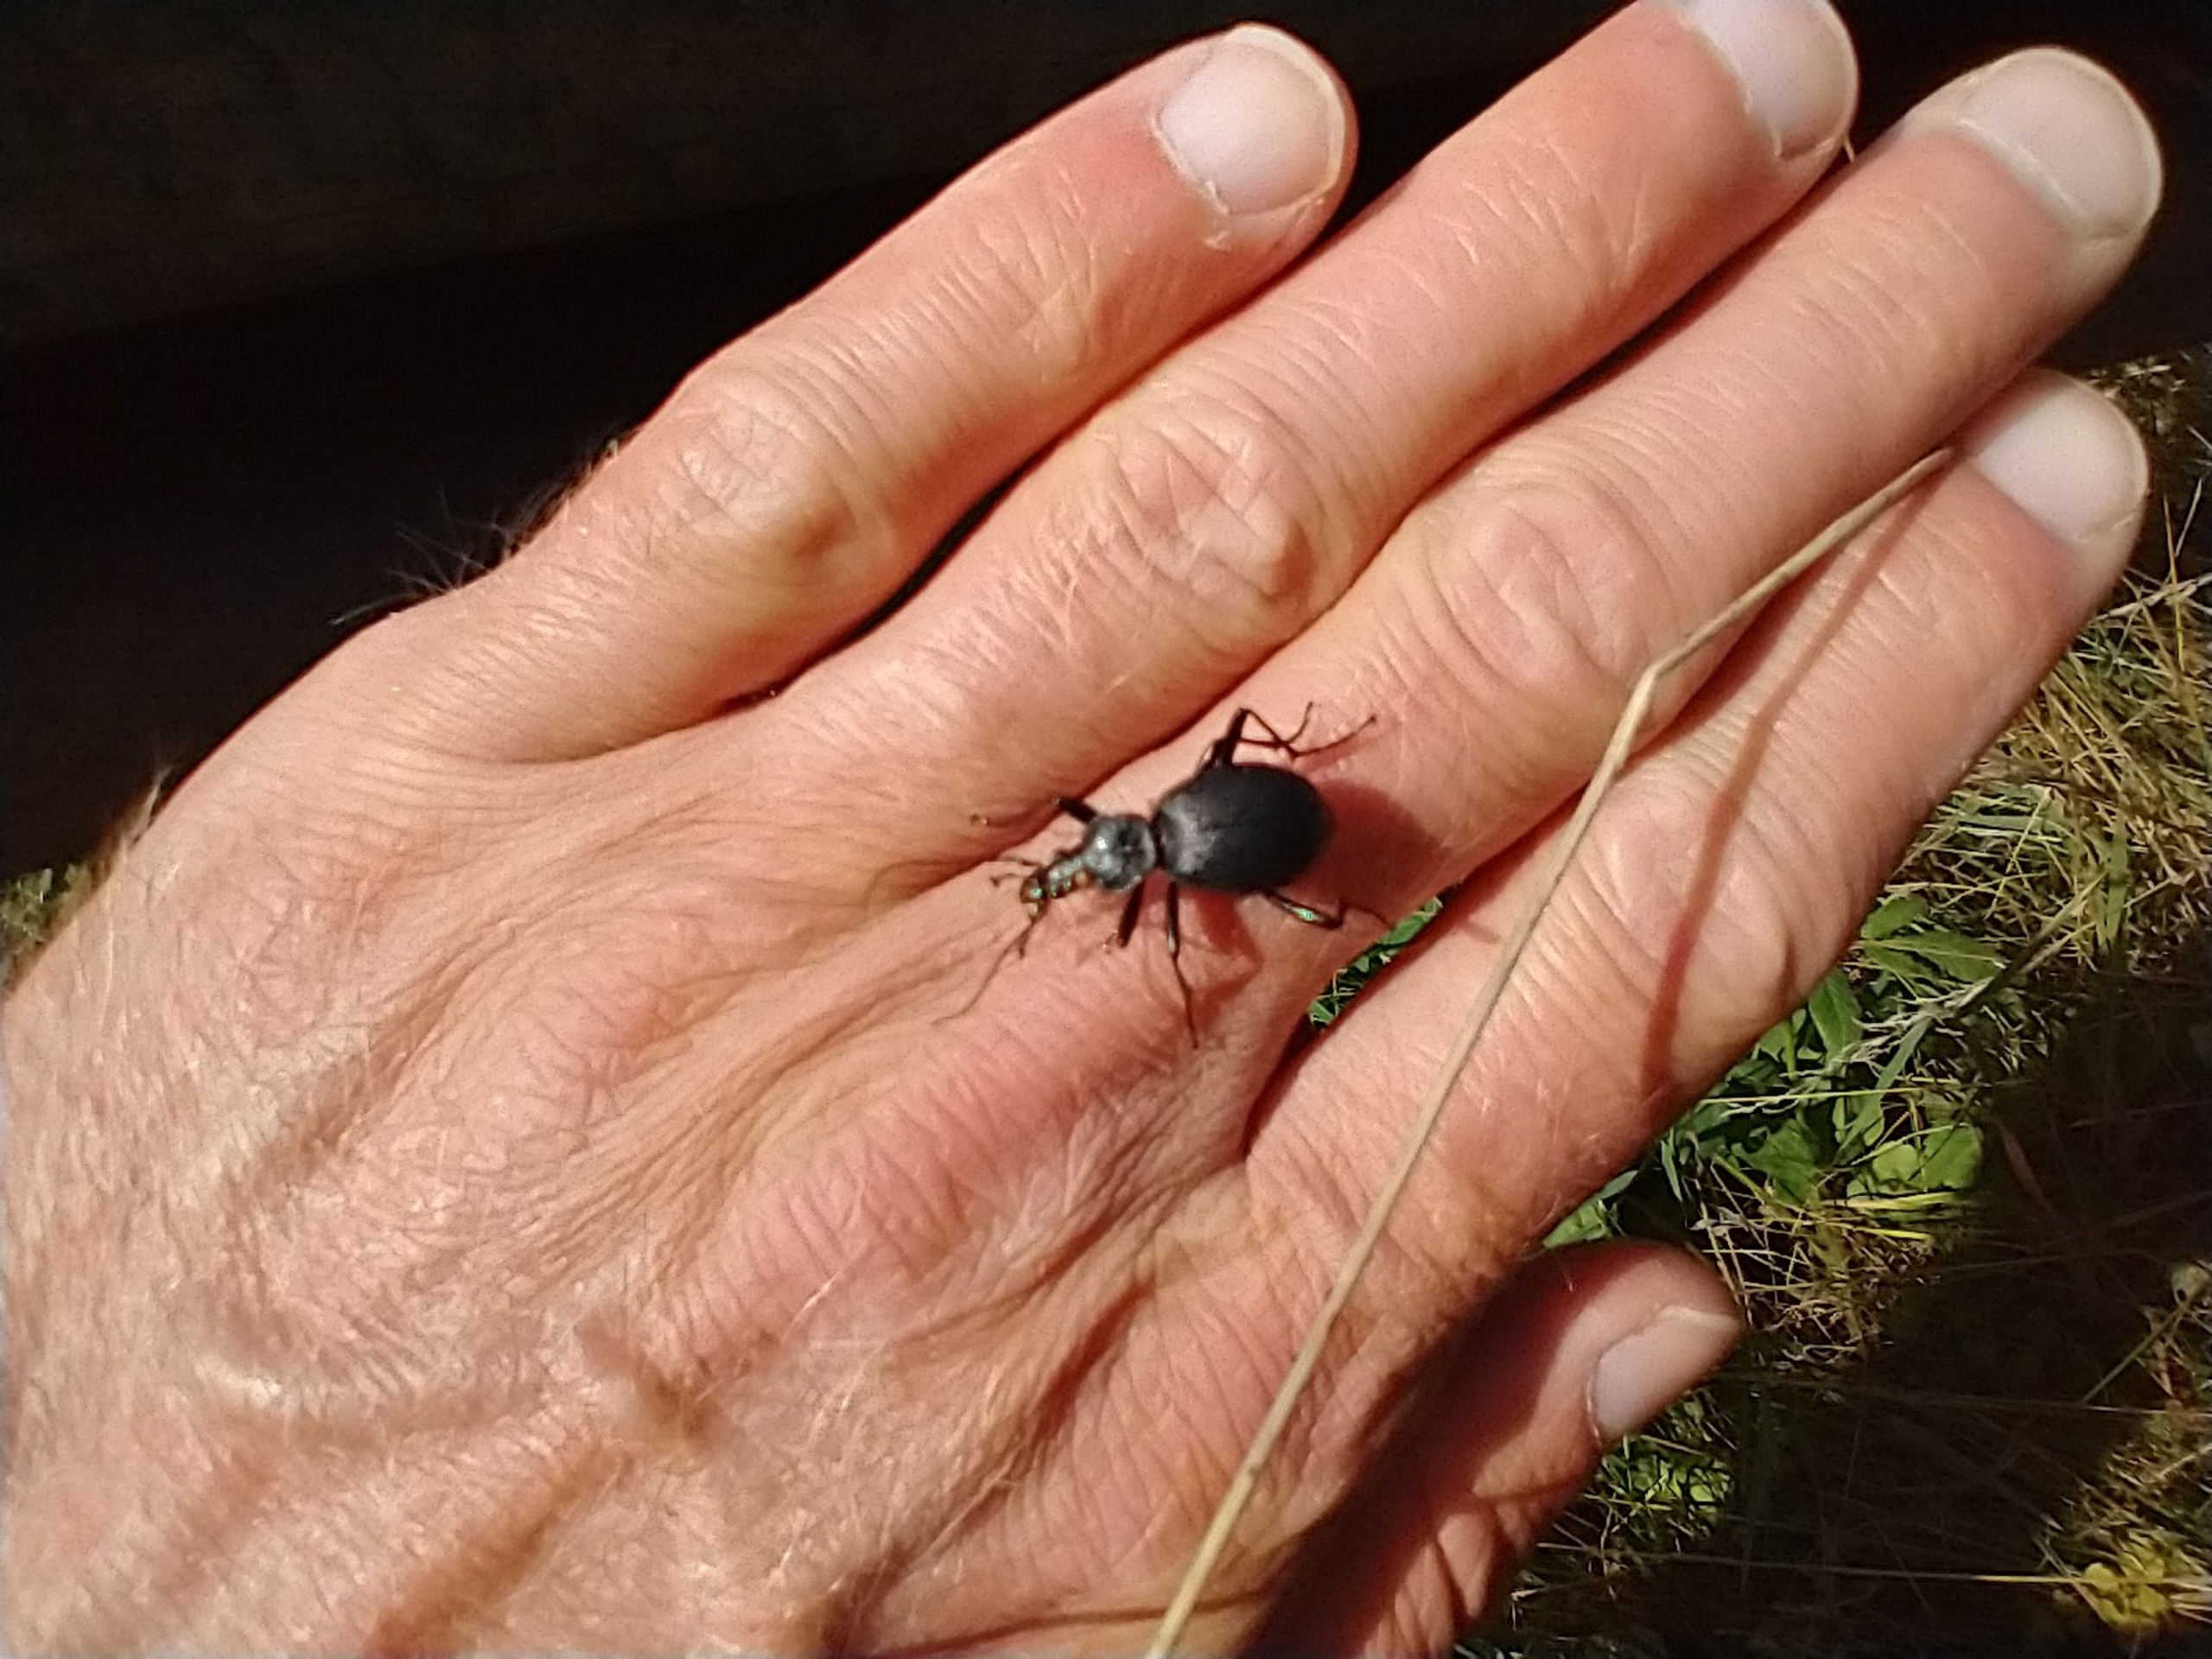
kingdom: Animalia
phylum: Arthropoda
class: Insecta
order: Coleoptera
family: Carabidae
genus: Cychrus
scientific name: Cychrus caraboides
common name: Sneglerøver
